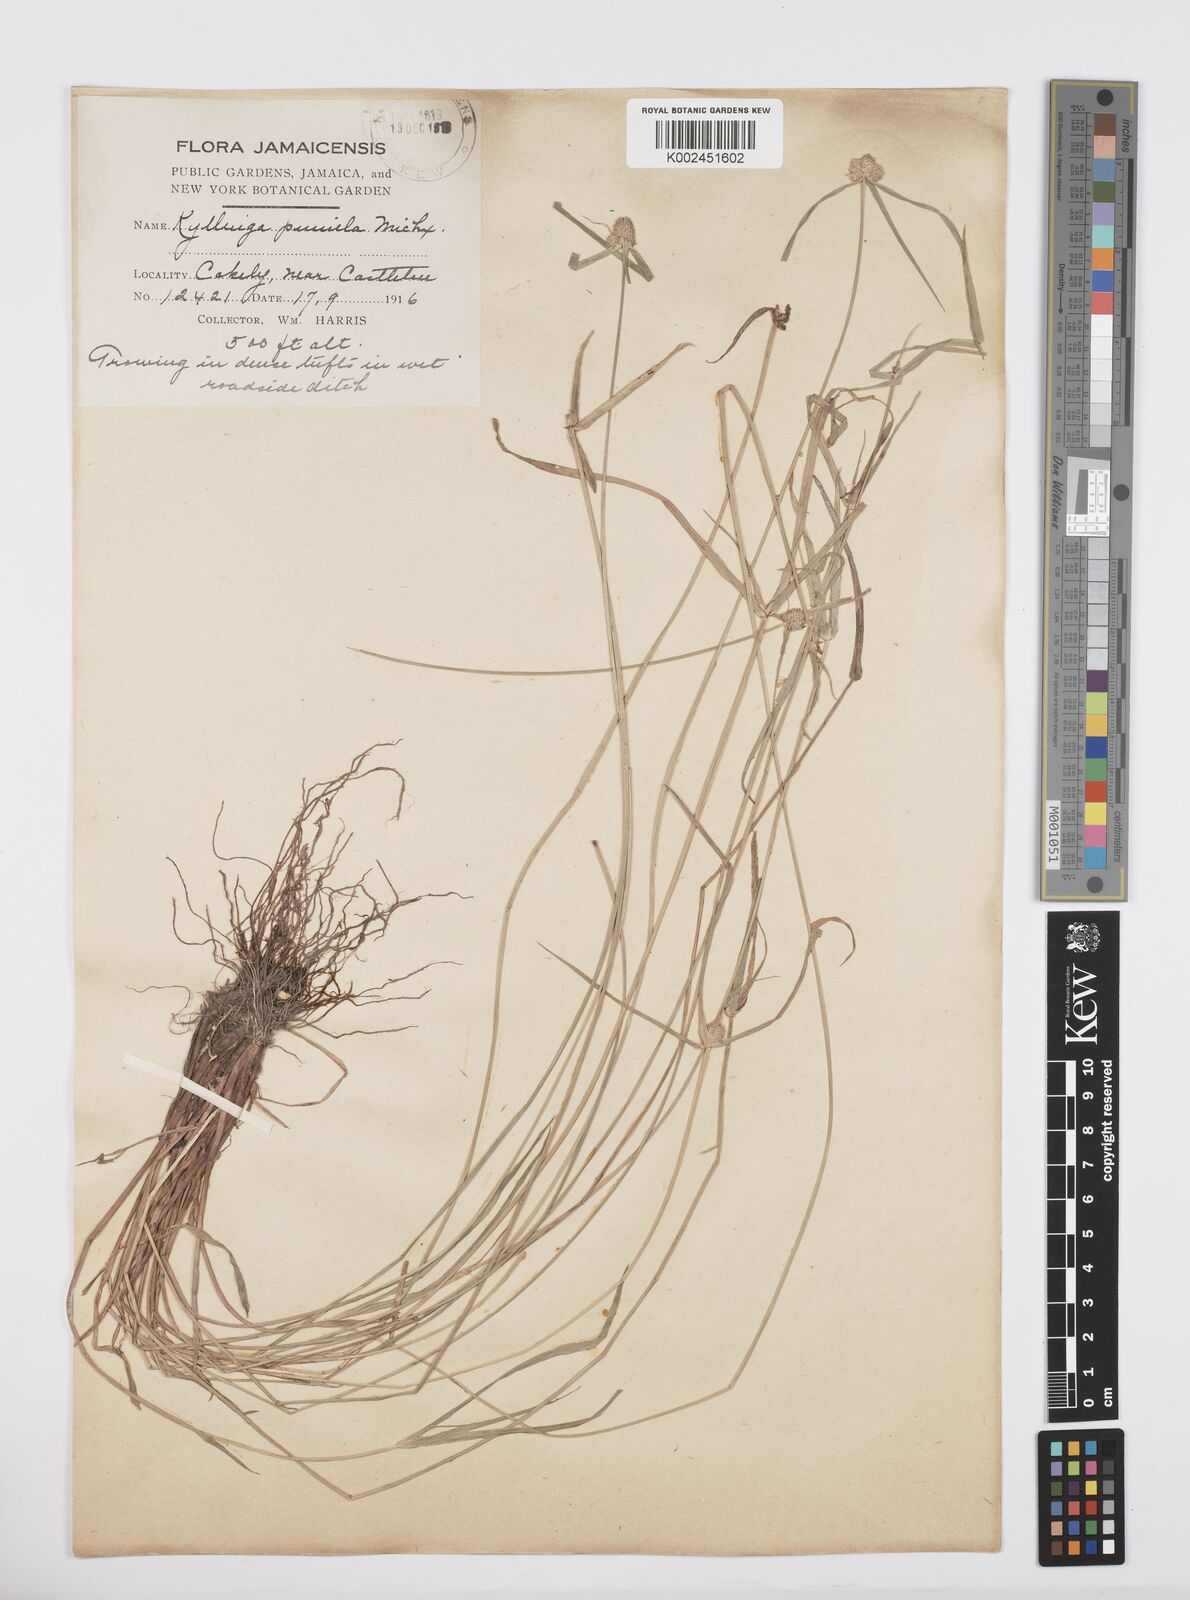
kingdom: Plantae
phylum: Tracheophyta
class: Liliopsida
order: Poales
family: Cyperaceae
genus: Cyperus
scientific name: Cyperus
